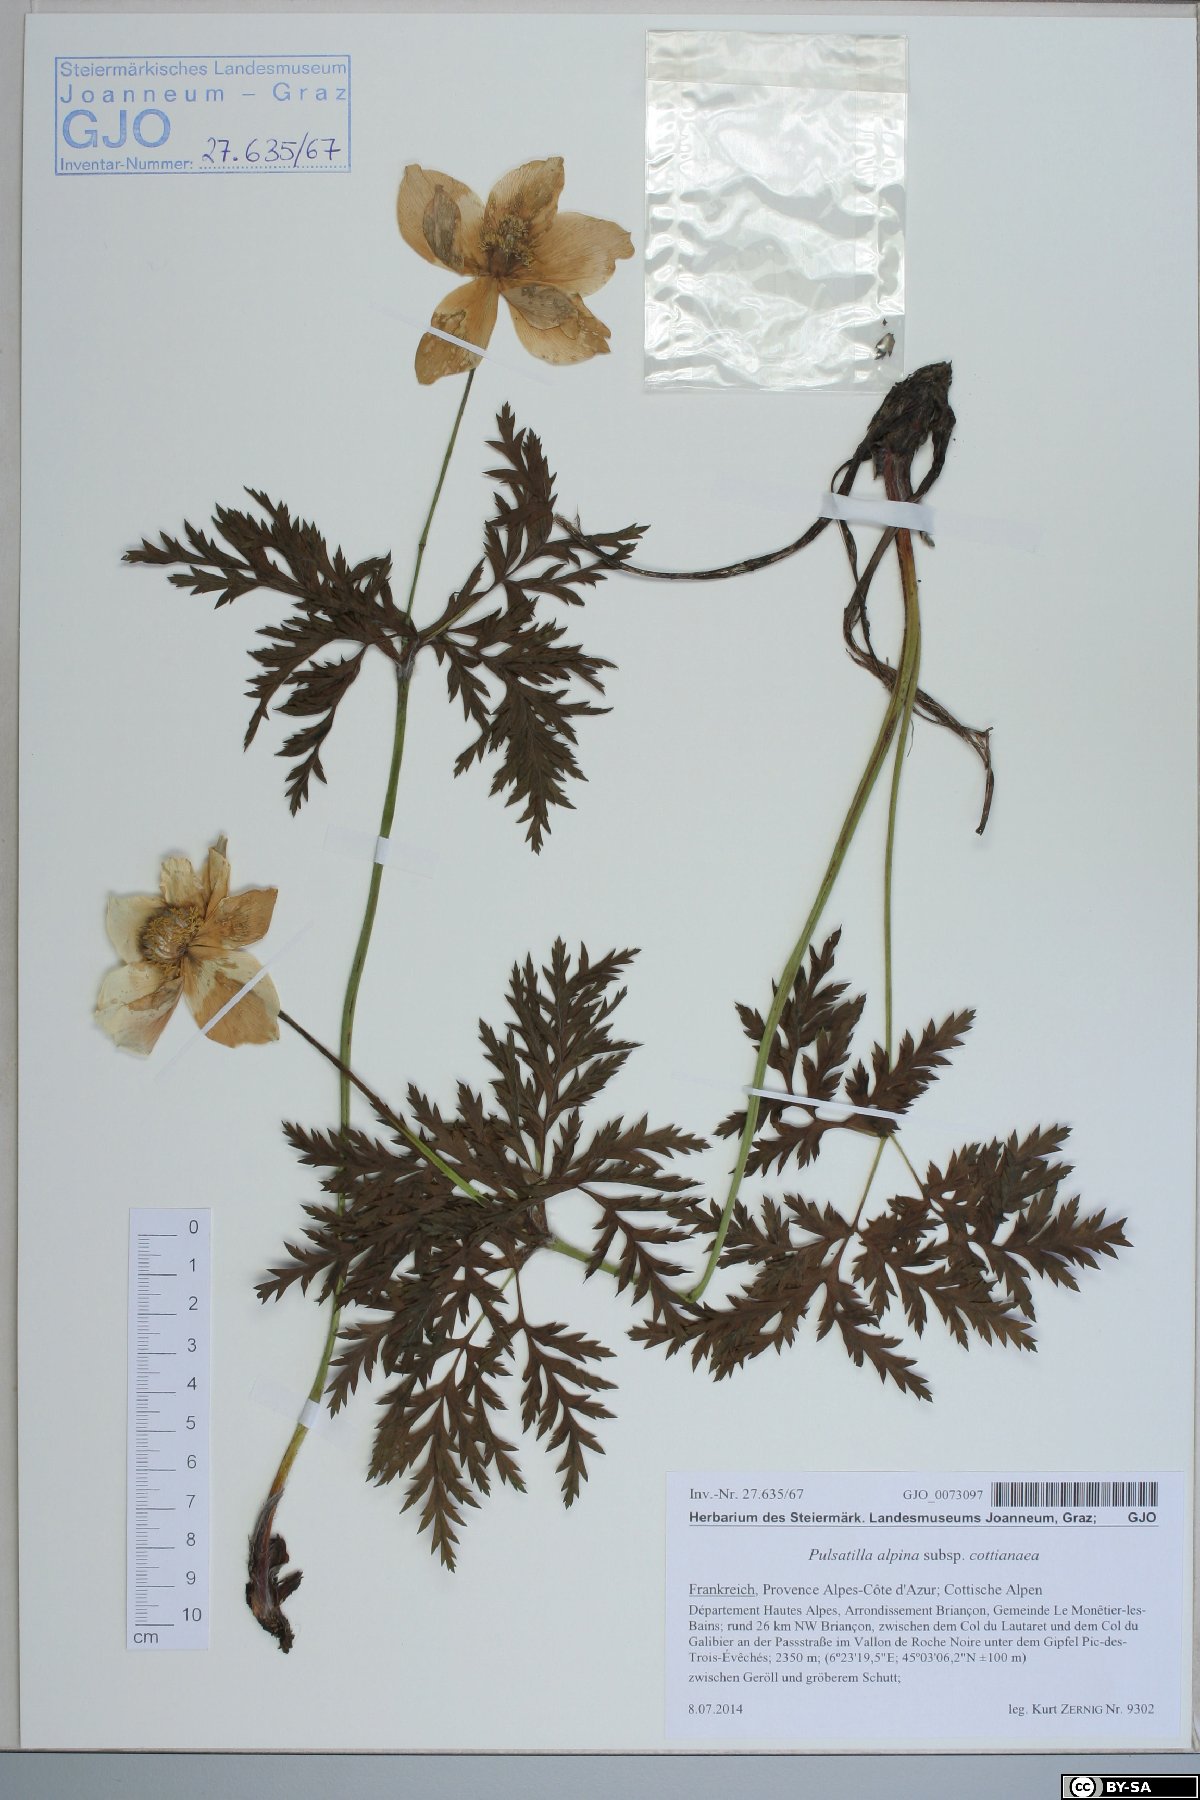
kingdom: Plantae
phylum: Tracheophyta
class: Magnoliopsida
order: Ranunculales
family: Ranunculaceae
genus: Pulsatilla
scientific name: Pulsatilla alpina
